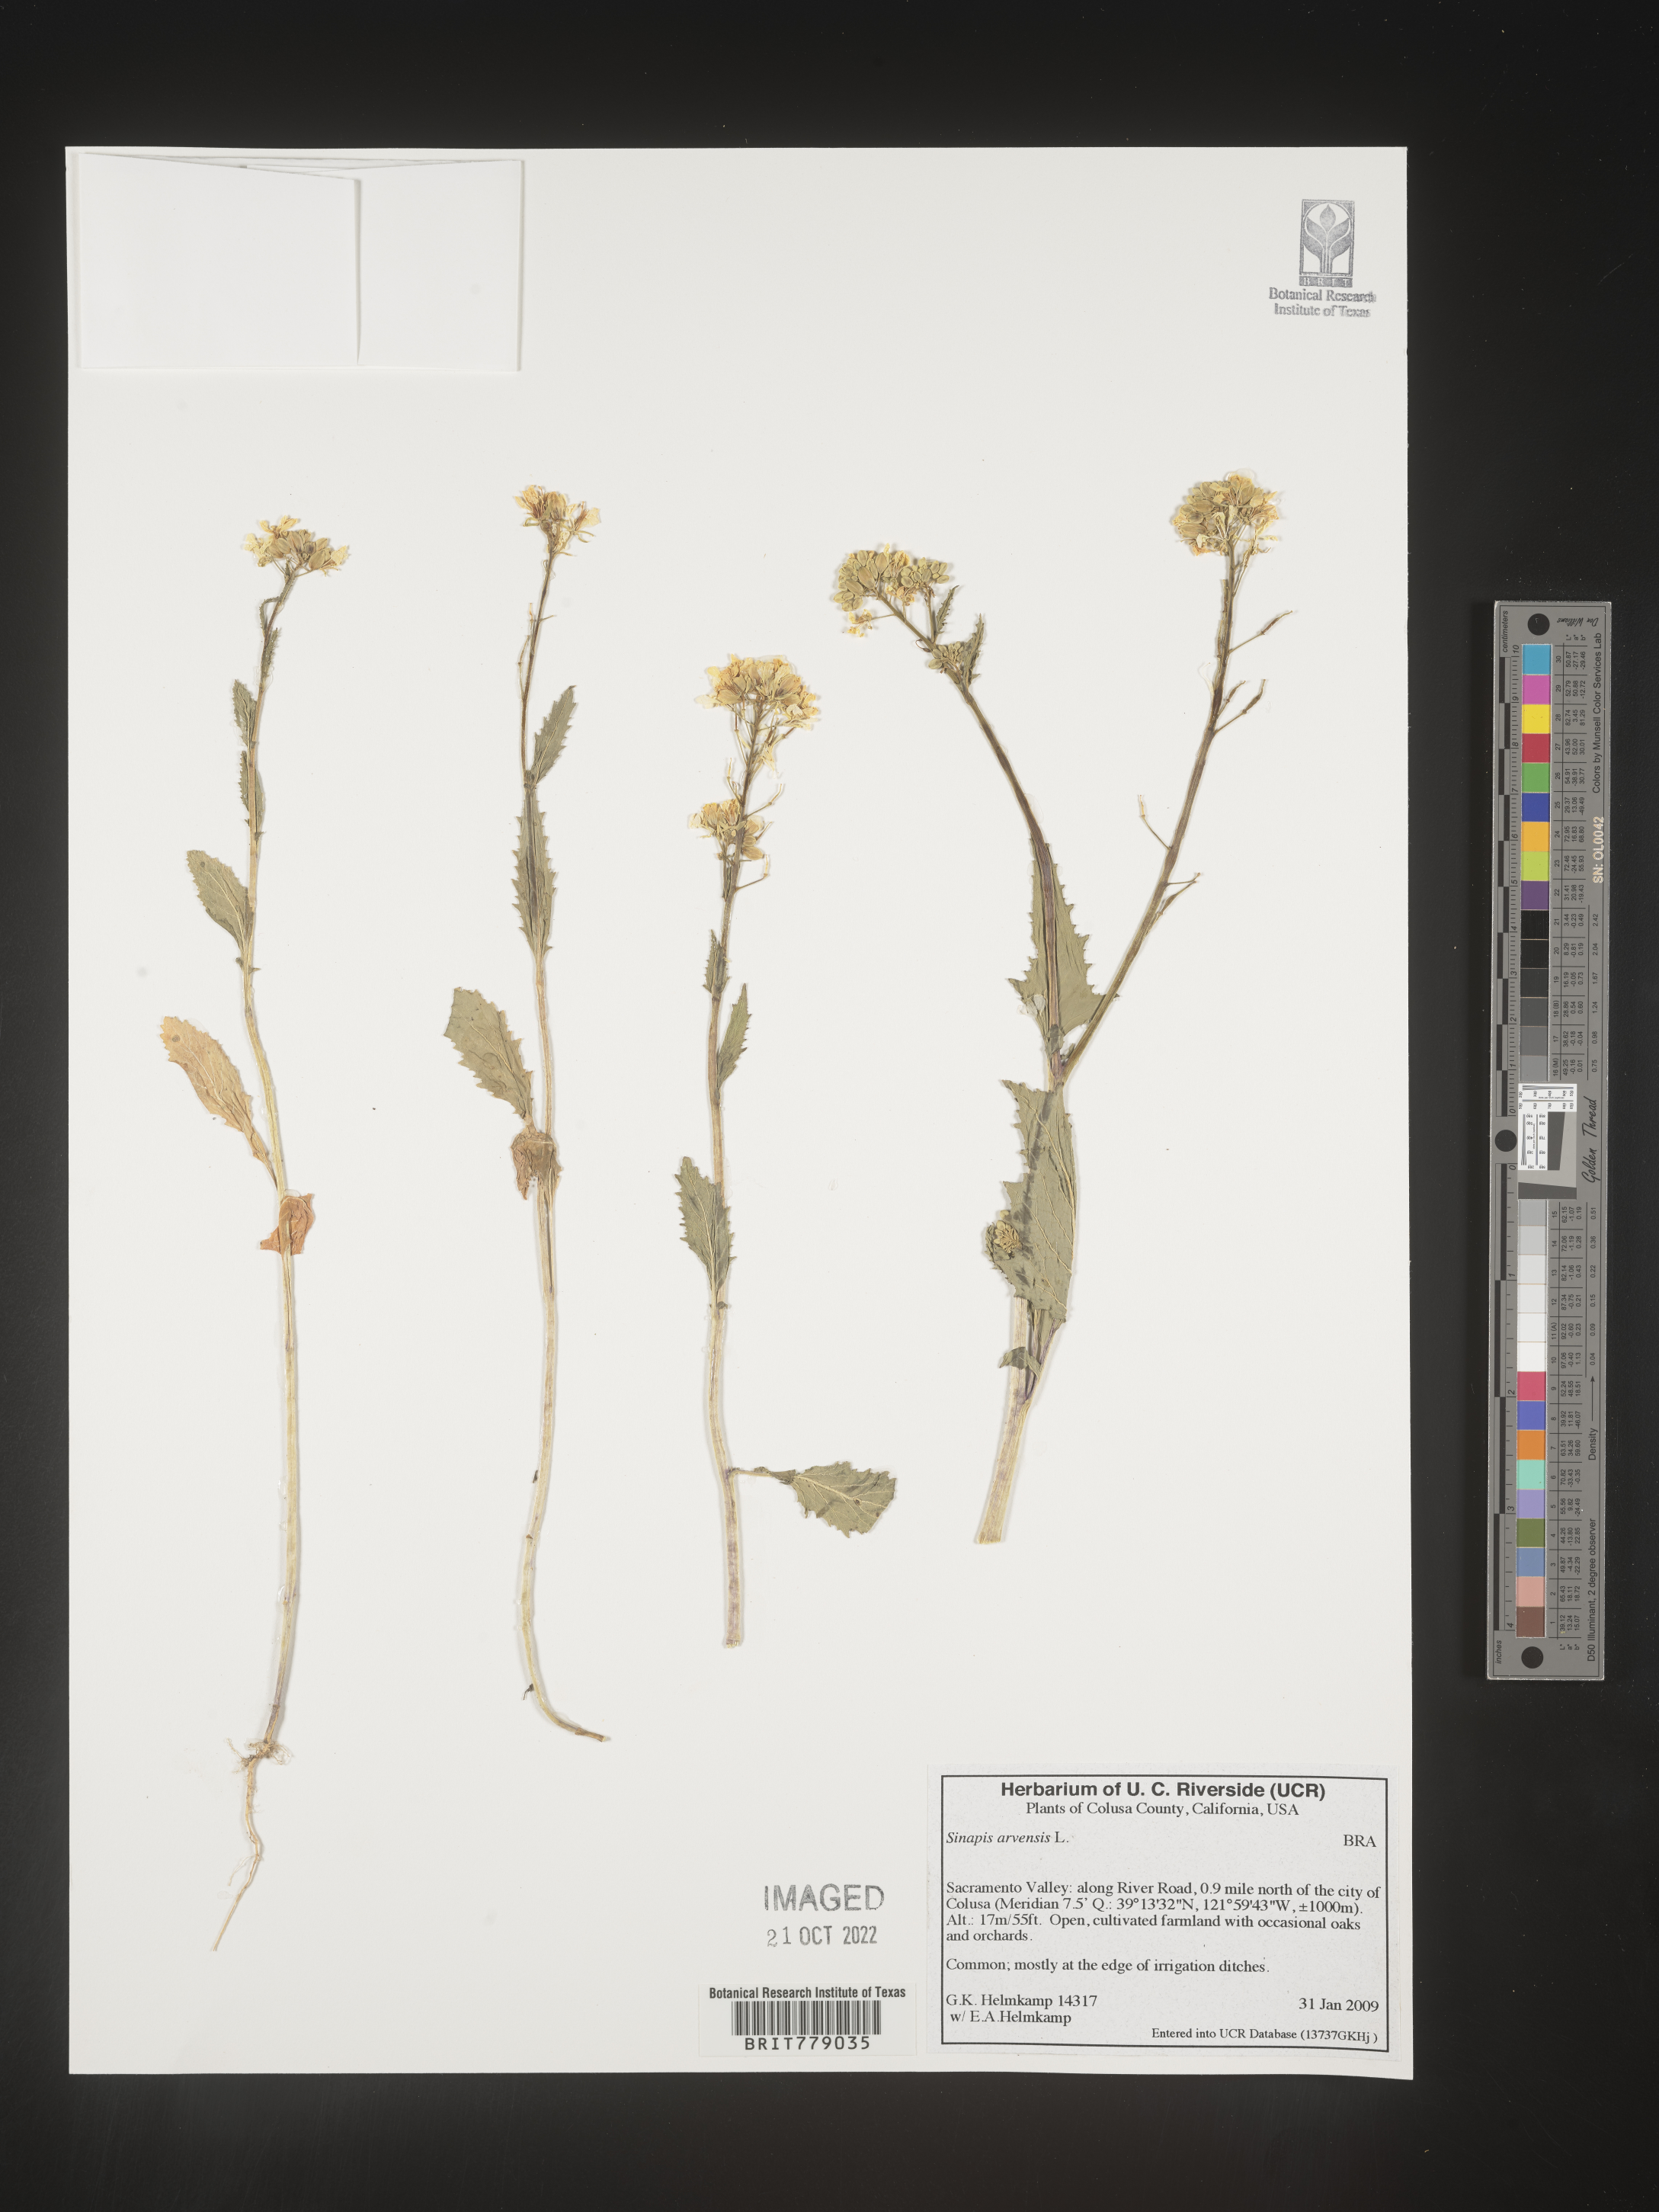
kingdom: Plantae
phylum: Tracheophyta
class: Magnoliopsida
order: Brassicales
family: Brassicaceae
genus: Sinapis
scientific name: Sinapis
